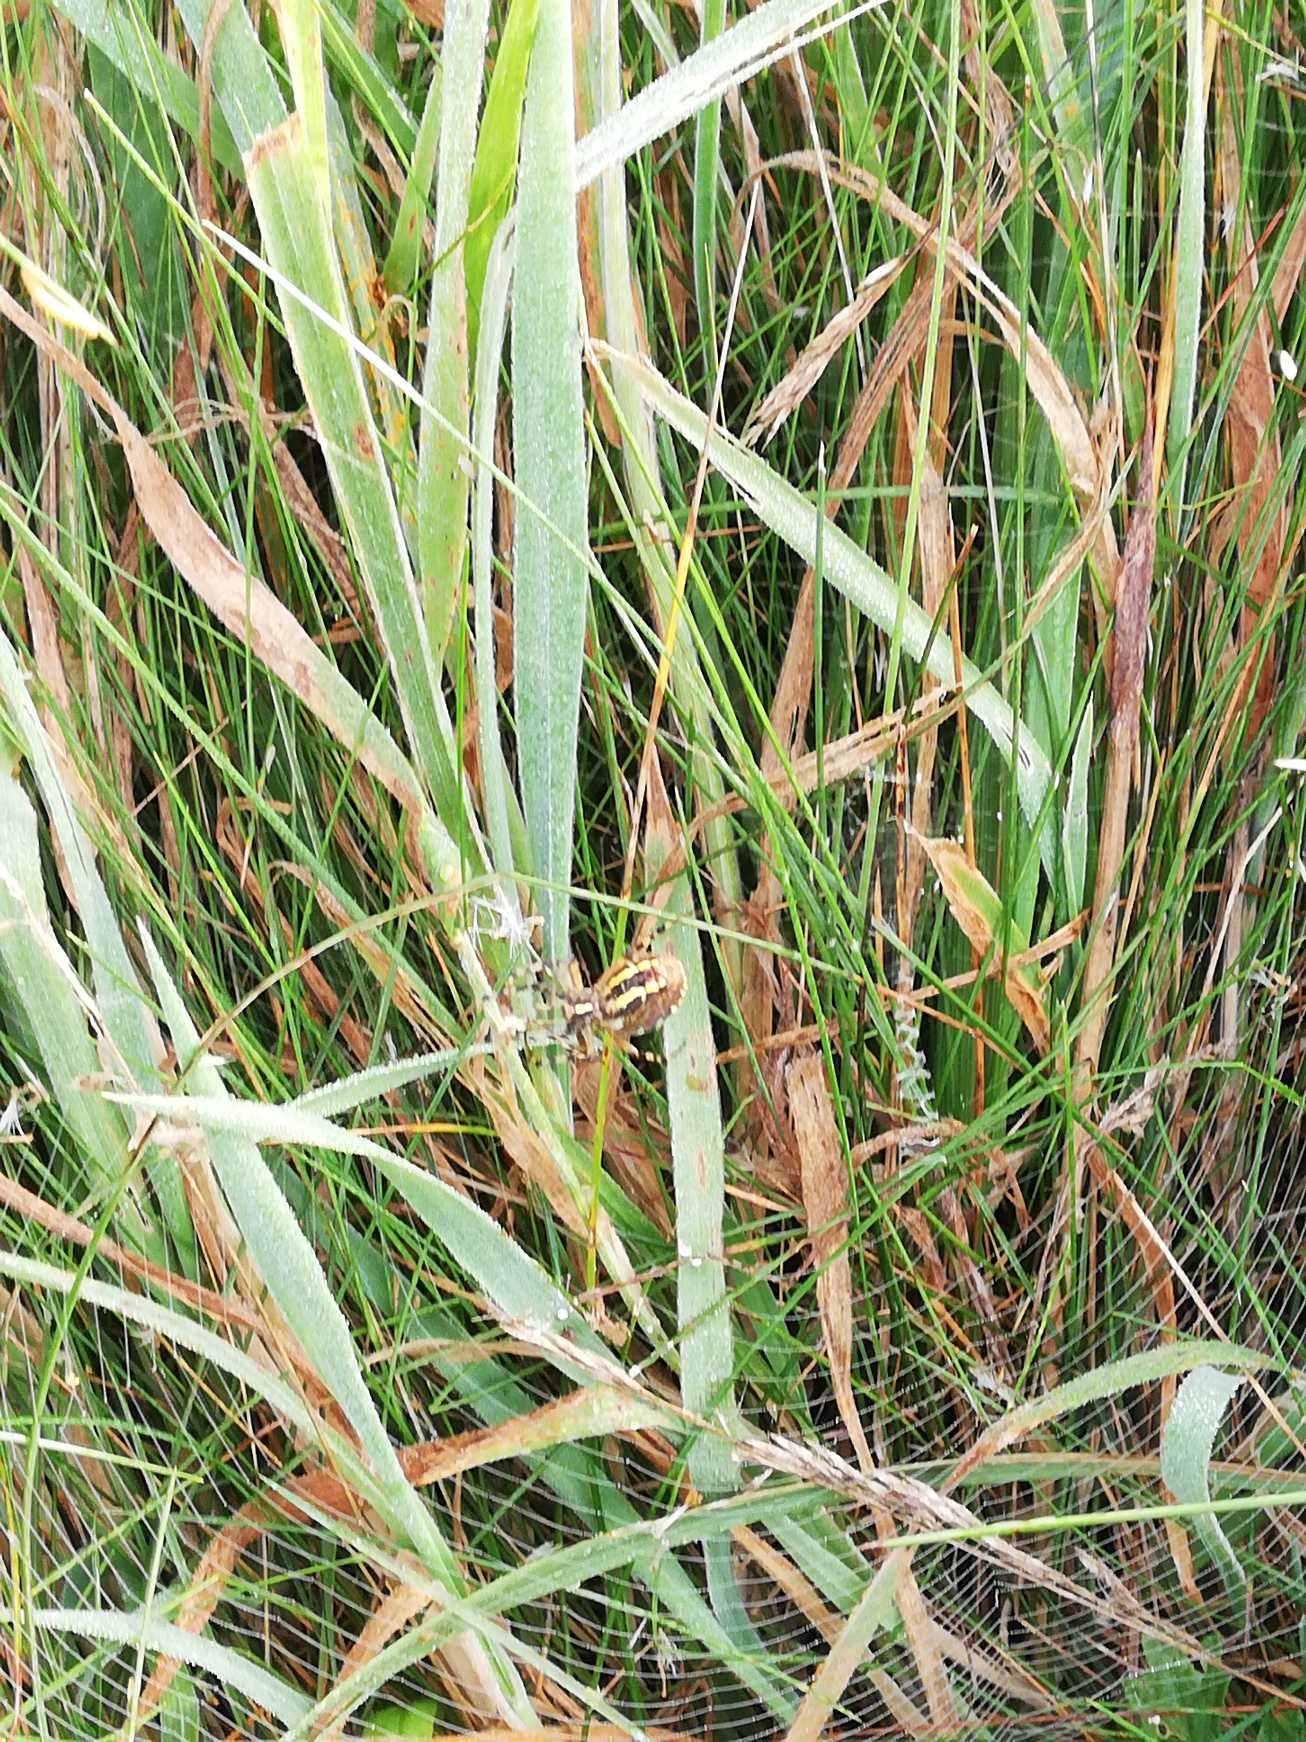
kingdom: Animalia
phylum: Arthropoda
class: Arachnida
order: Araneae
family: Araneidae
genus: Argiope
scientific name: Argiope bruennichi
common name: Hvepseedderkop
